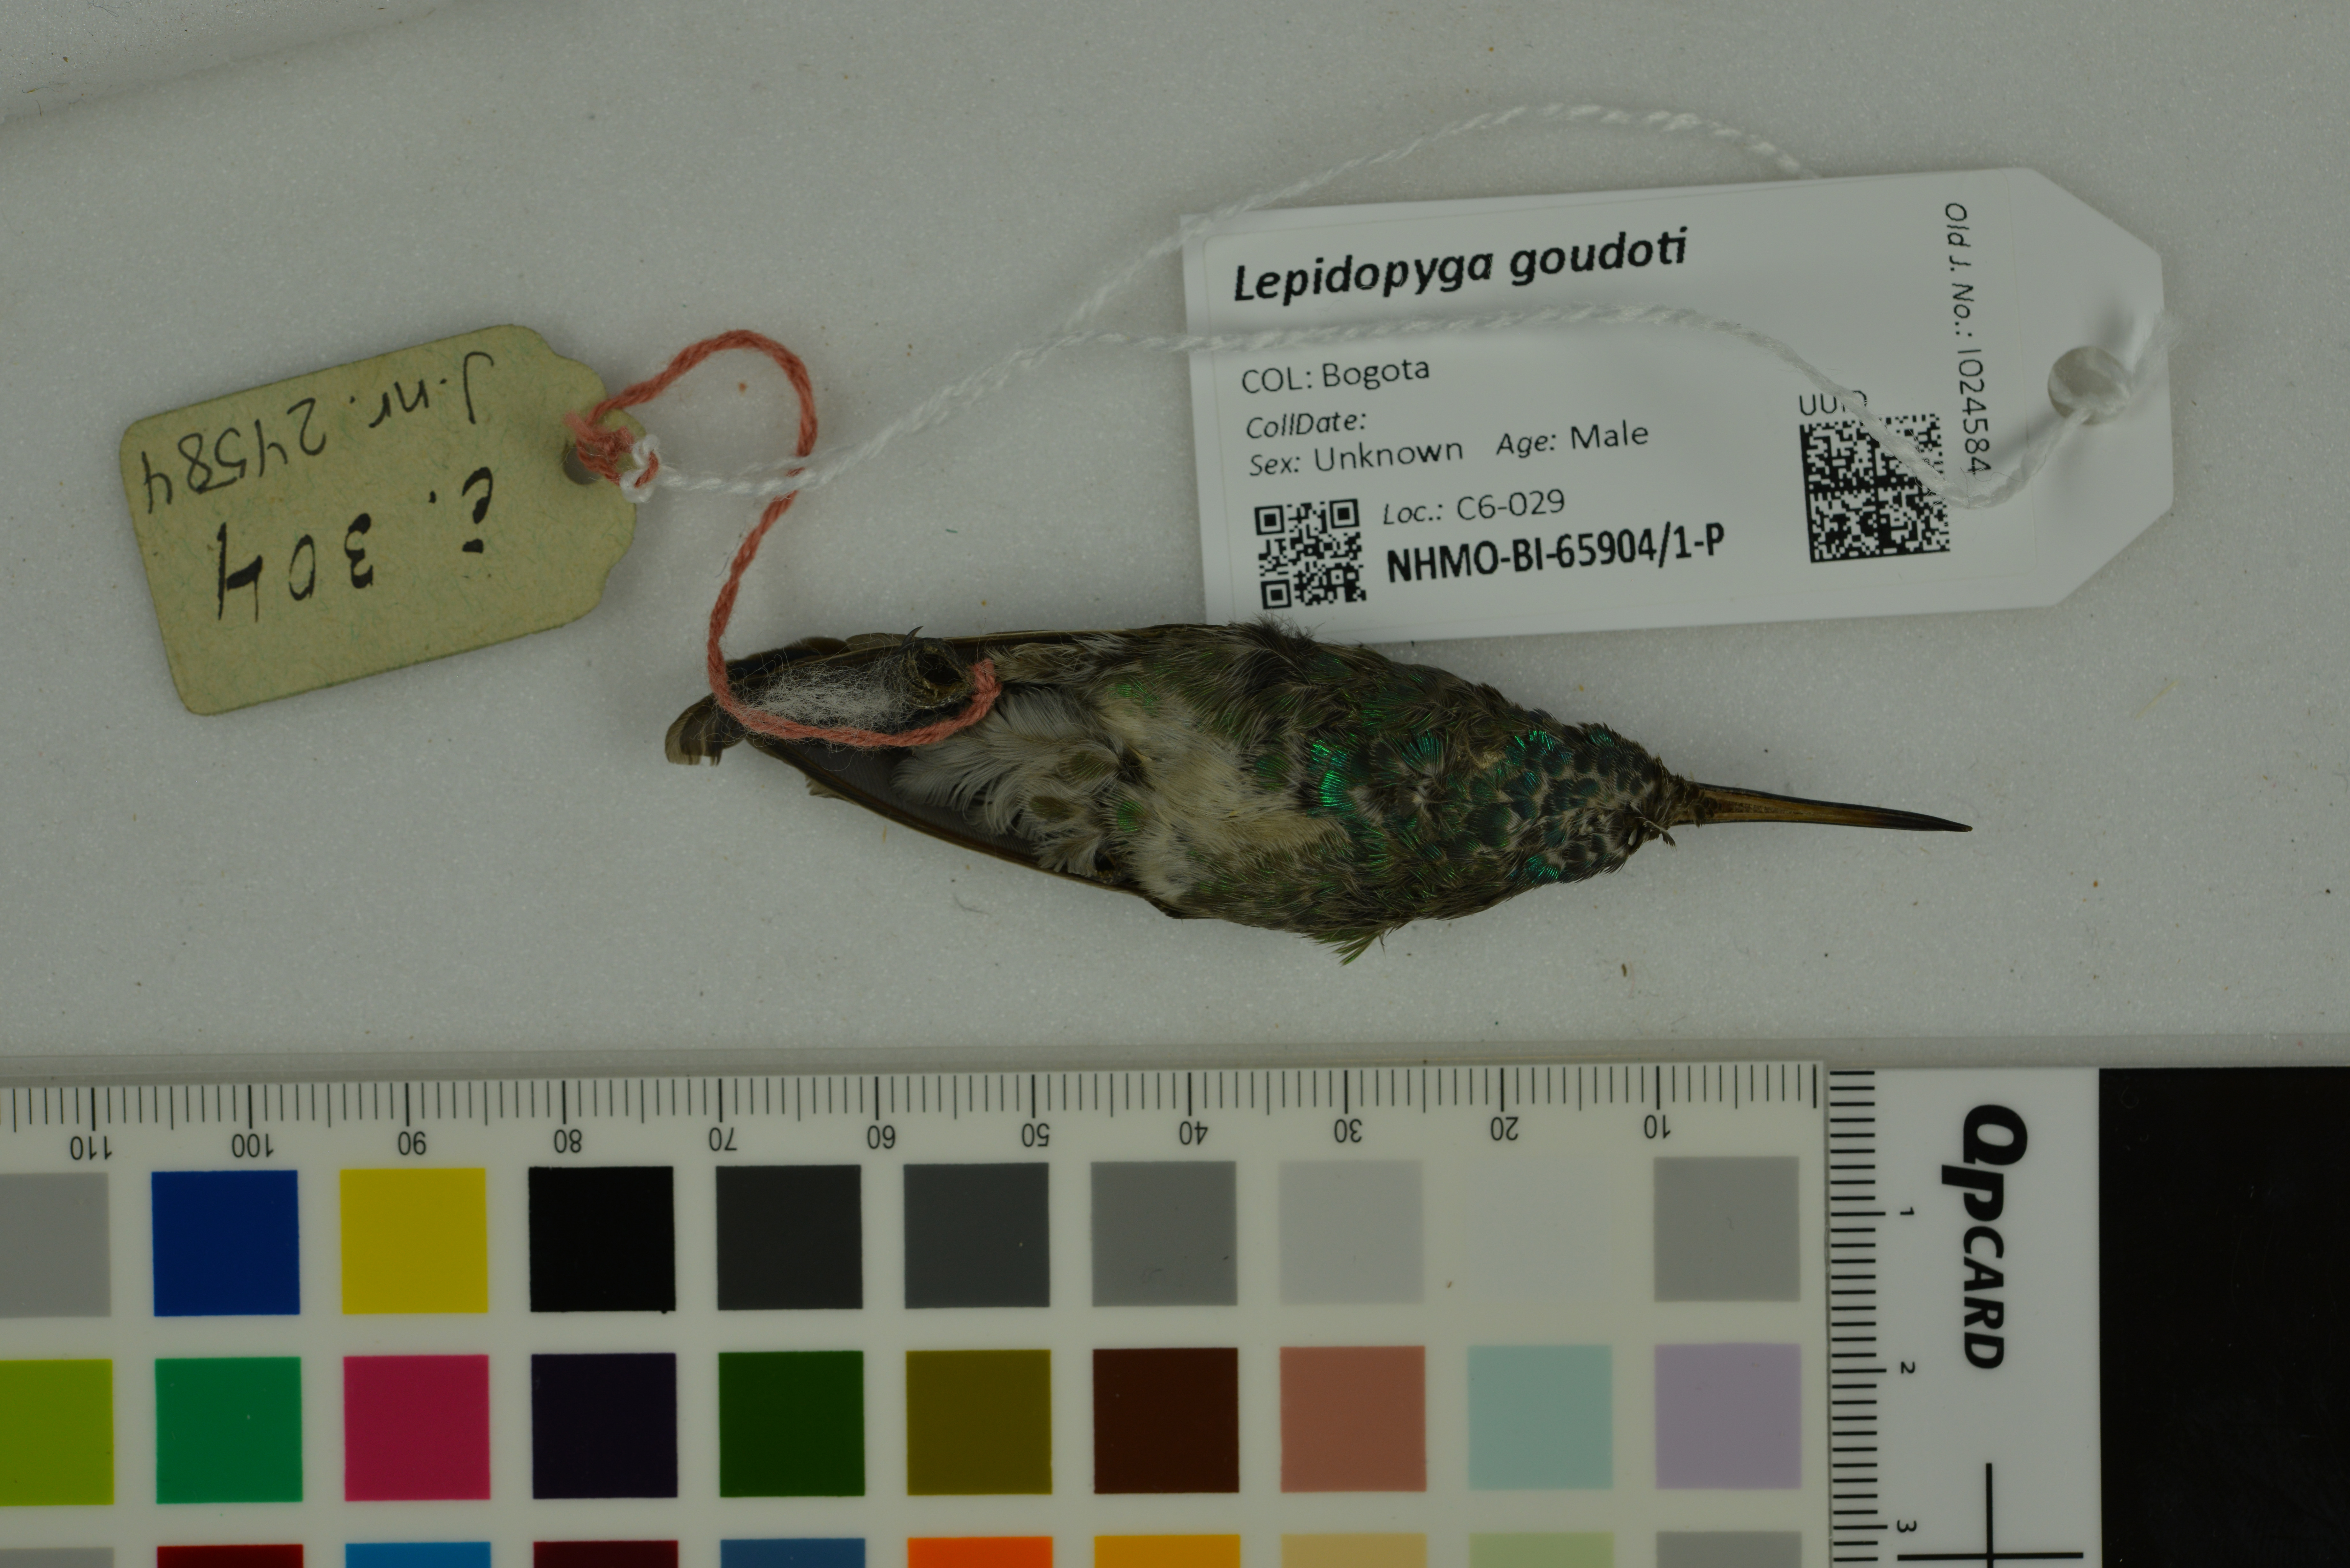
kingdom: Animalia
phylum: Chordata
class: Aves
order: Apodiformes
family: Trochilidae
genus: Chrysuronia
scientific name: Chrysuronia goudoti
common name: Shining-green hummingbird
